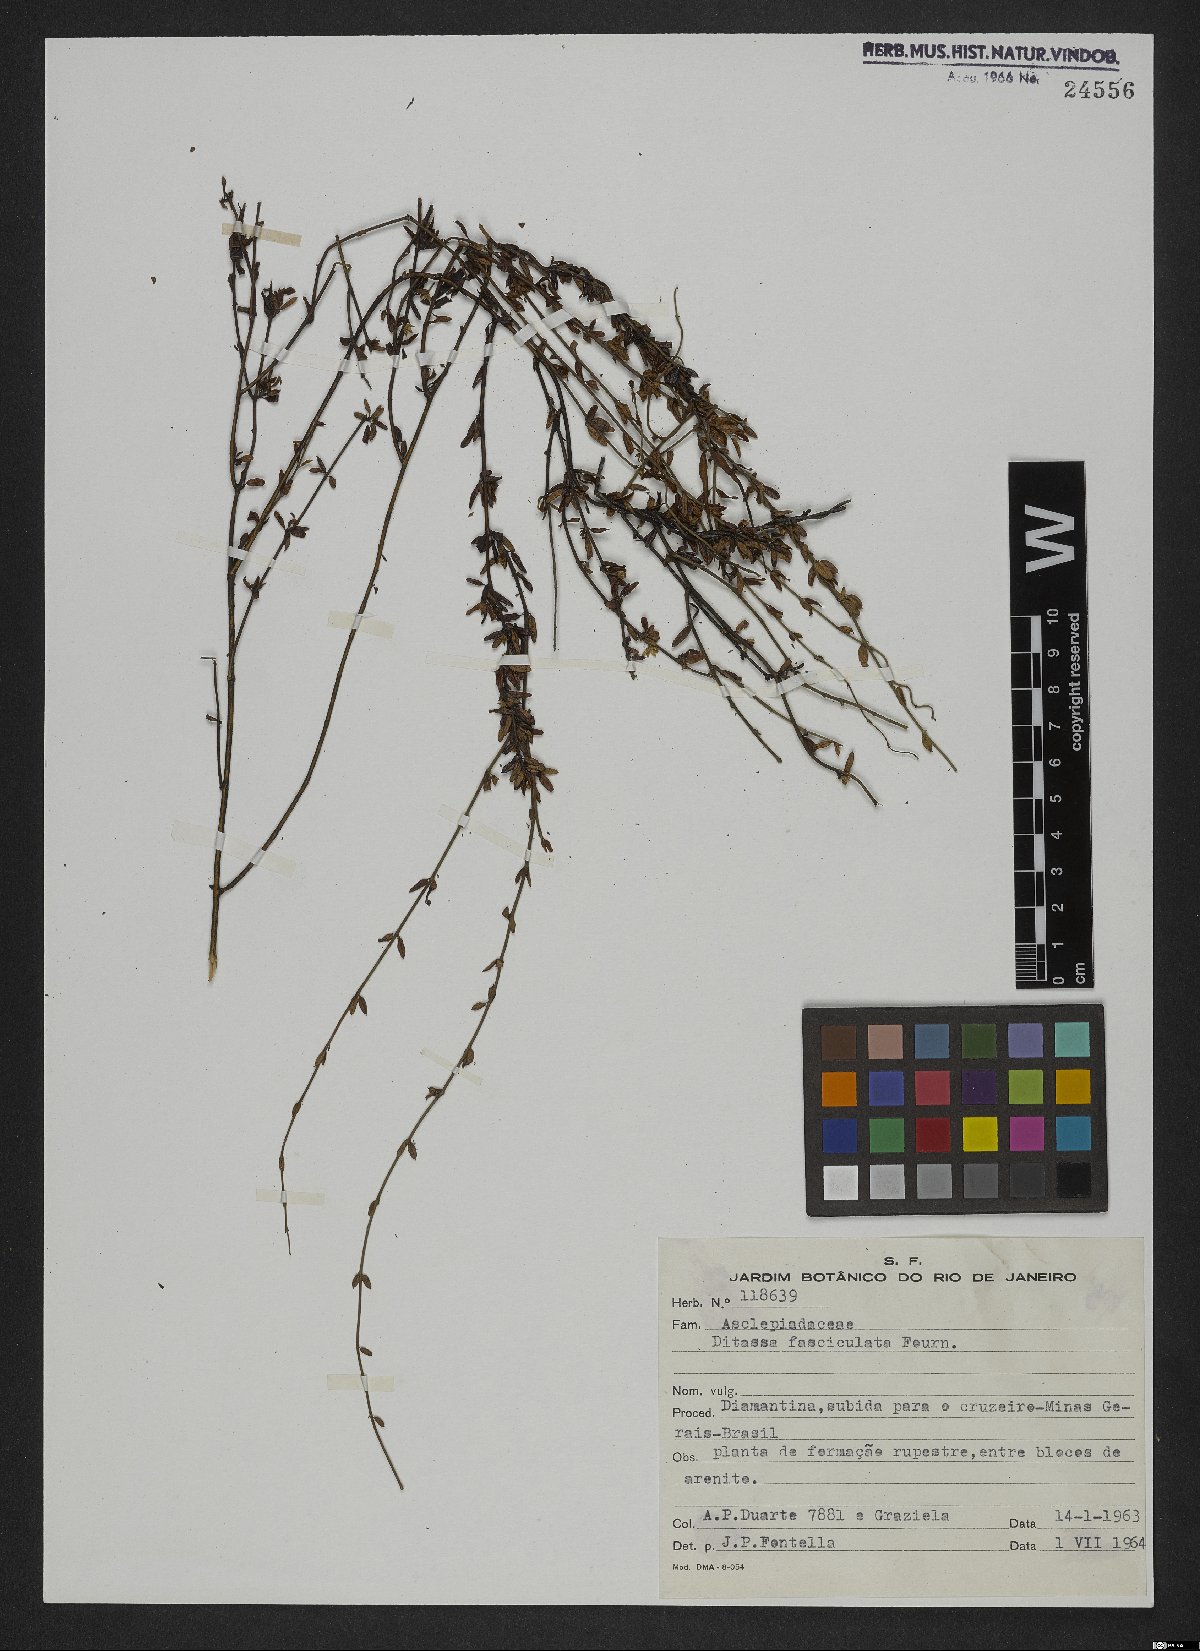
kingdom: Plantae
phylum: Tracheophyta
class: Magnoliopsida
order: Gentianales
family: Apocynaceae
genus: Ditassa
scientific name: Ditassa fasciculata
